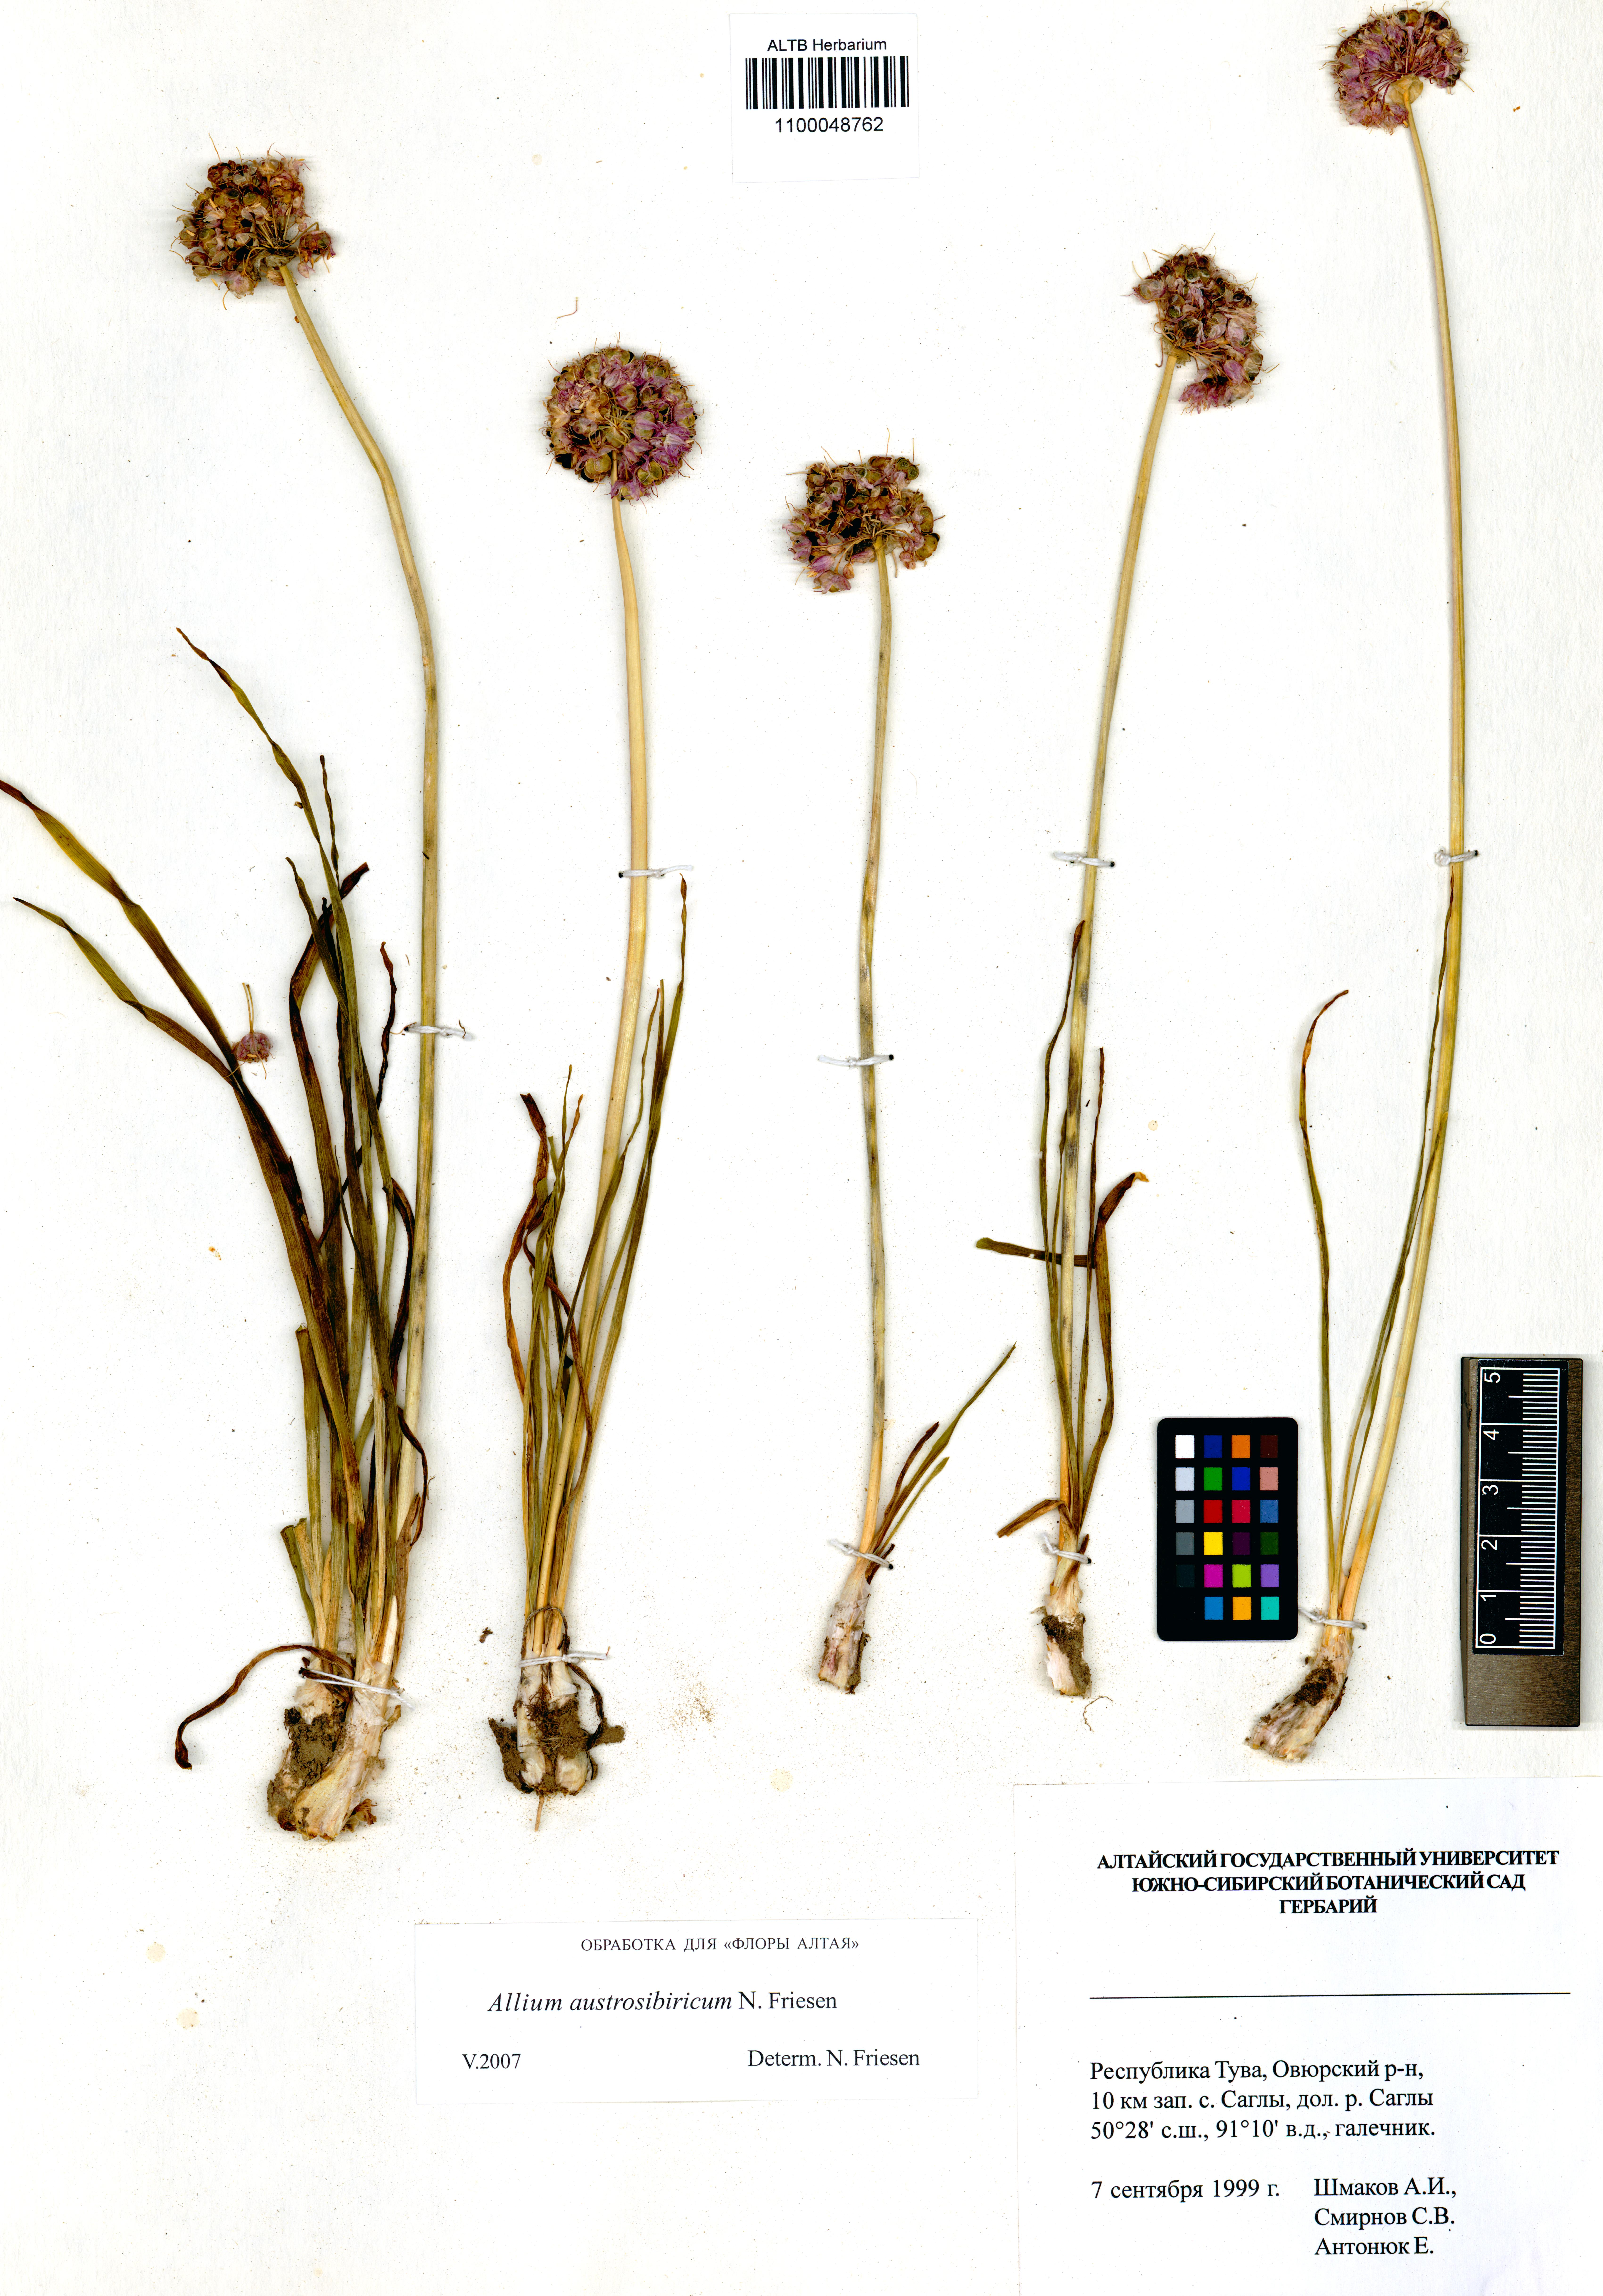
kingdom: Plantae
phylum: Tracheophyta
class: Liliopsida
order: Asparagales
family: Amaryllidaceae
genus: Allium
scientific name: Allium austrosibiricum
